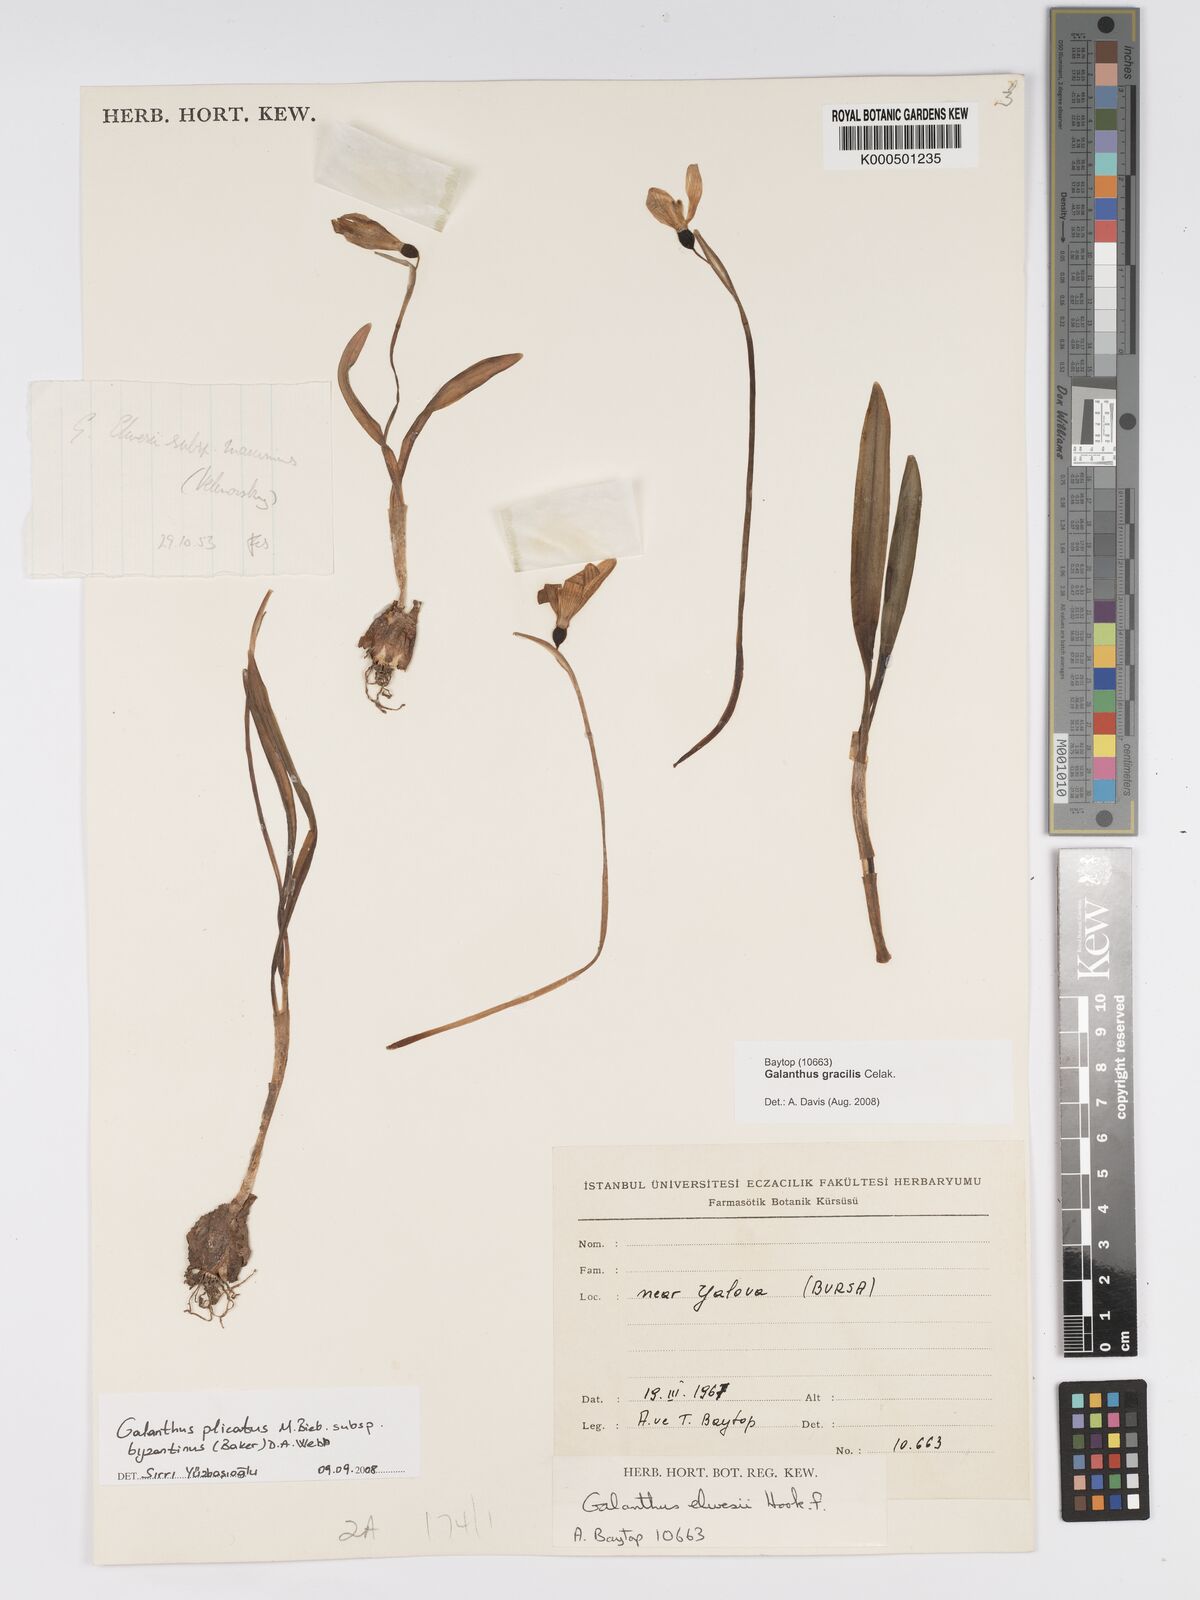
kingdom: Plantae
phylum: Tracheophyta
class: Liliopsida
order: Asparagales
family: Amaryllidaceae
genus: Galanthus
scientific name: Galanthus gracilis
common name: Snowdrop
